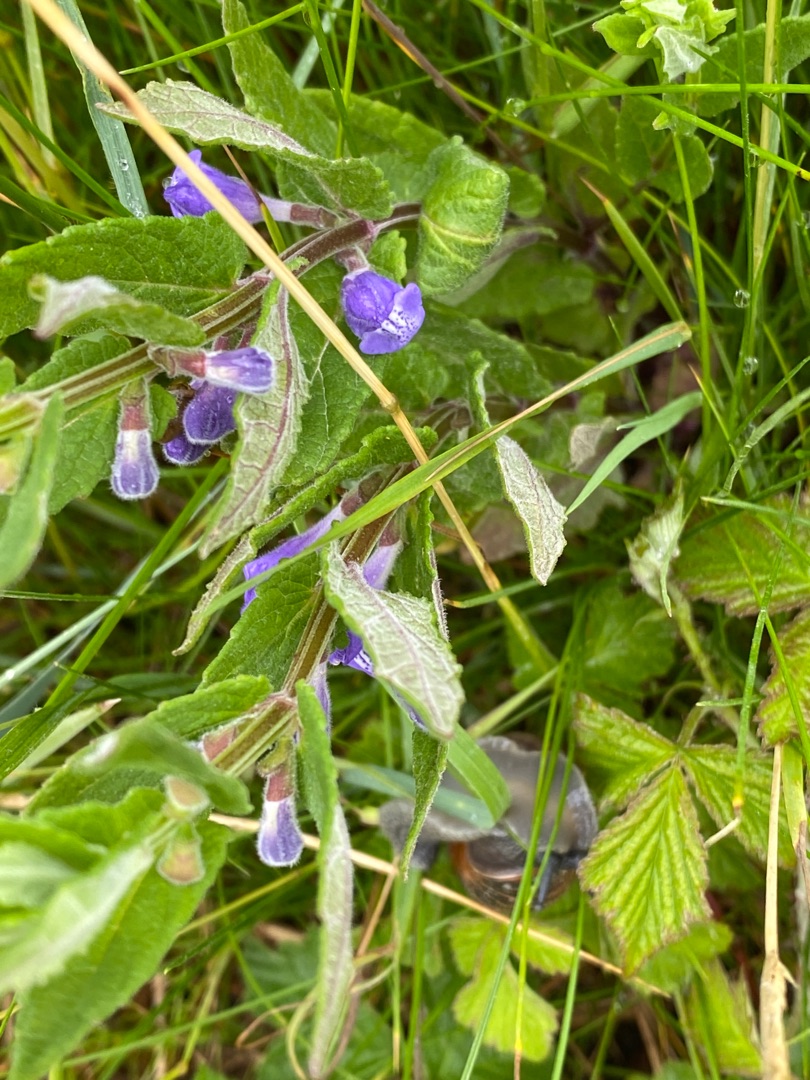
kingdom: Plantae
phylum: Tracheophyta
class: Magnoliopsida
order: Lamiales
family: Lamiaceae
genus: Scutellaria
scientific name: Scutellaria galericulata
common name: Almindelig skjolddrager
